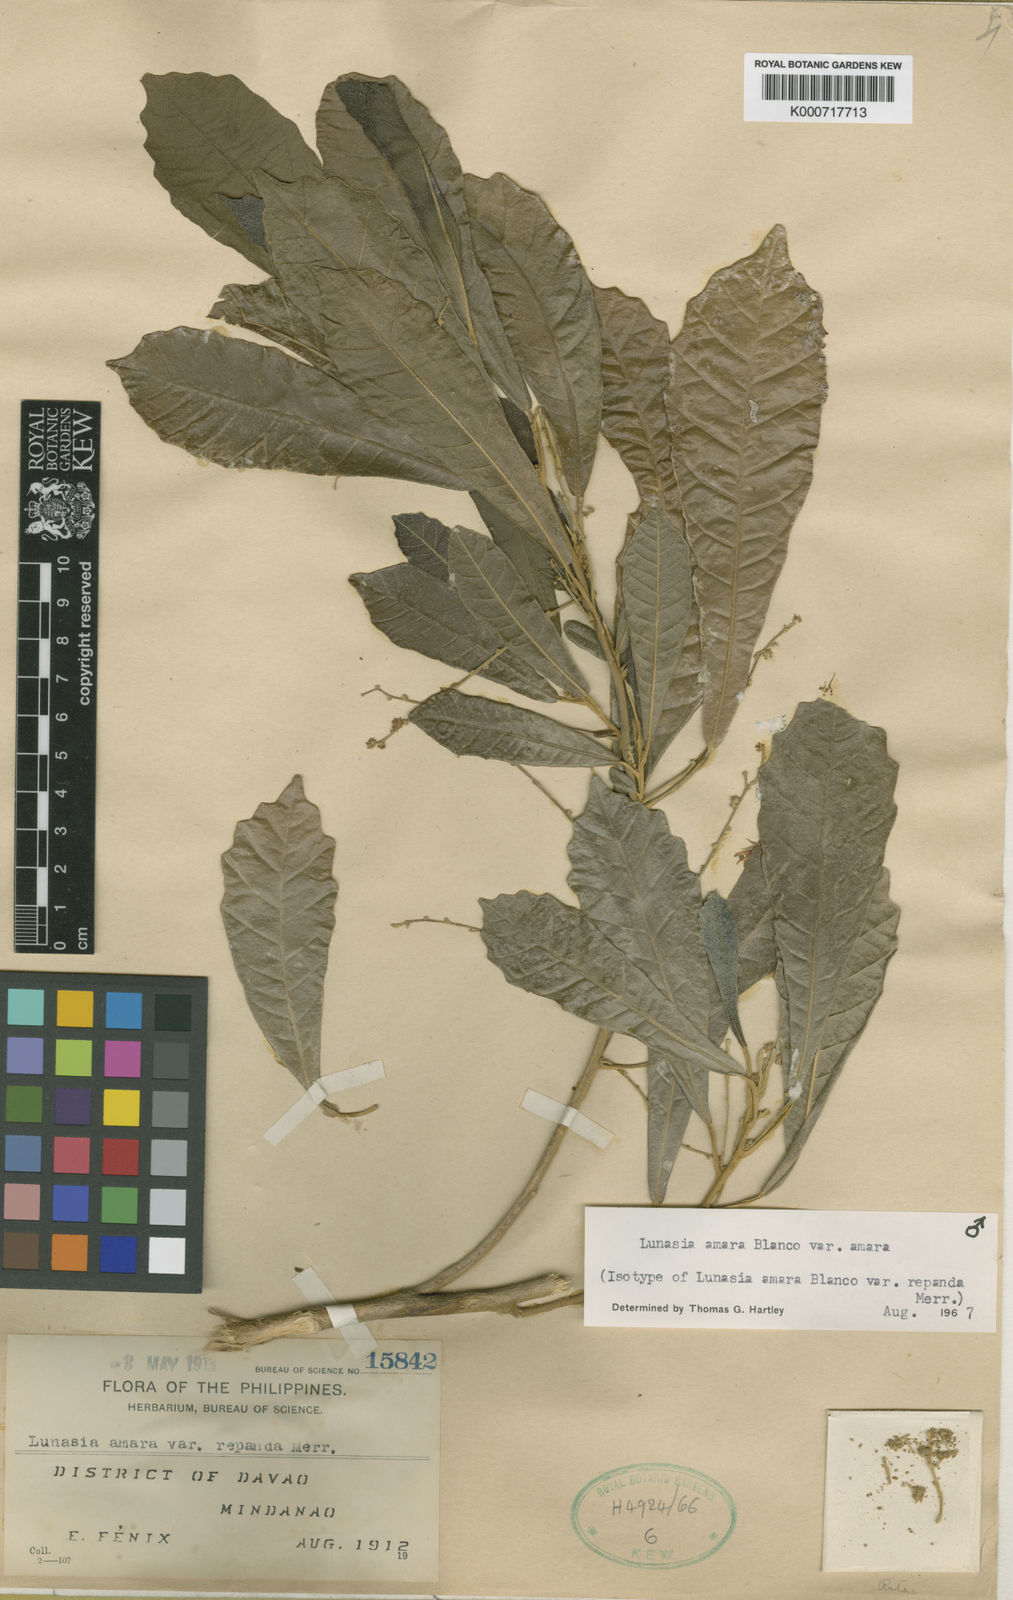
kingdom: Plantae
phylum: Tracheophyta
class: Magnoliopsida
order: Sapindales
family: Rutaceae
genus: Lunasia
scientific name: Lunasia amara
